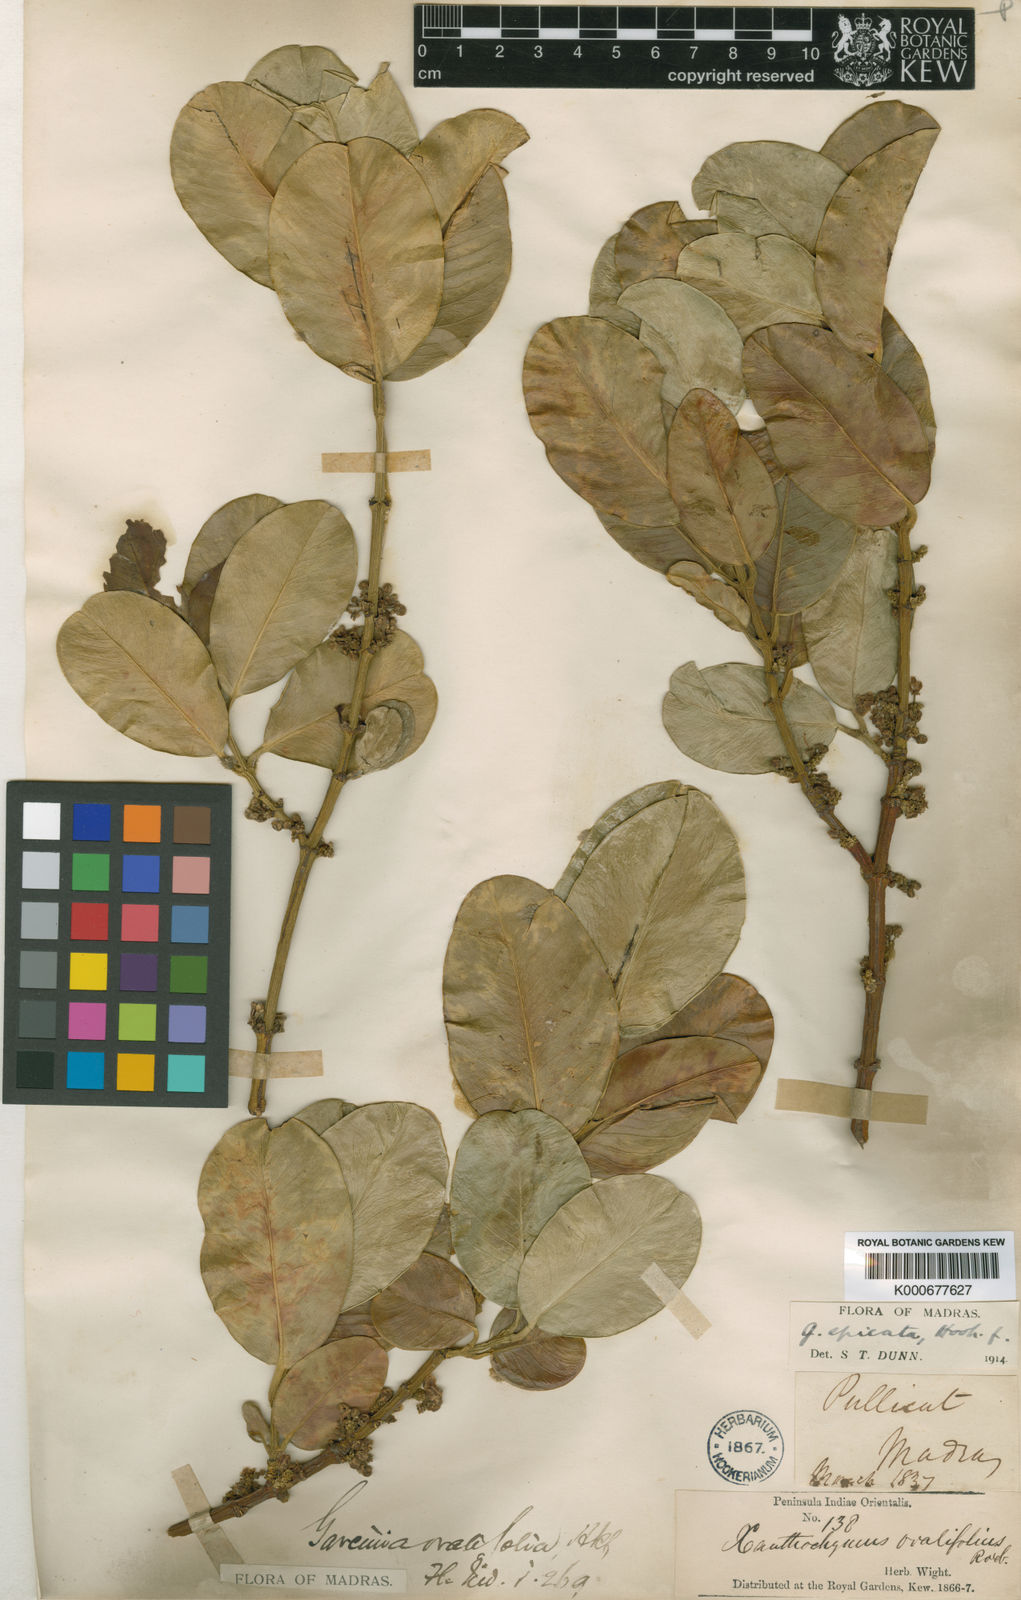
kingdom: Plantae
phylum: Tracheophyta
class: Magnoliopsida
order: Malpighiales
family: Clusiaceae
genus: Garcinia
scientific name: Garcinia ovalifolia
